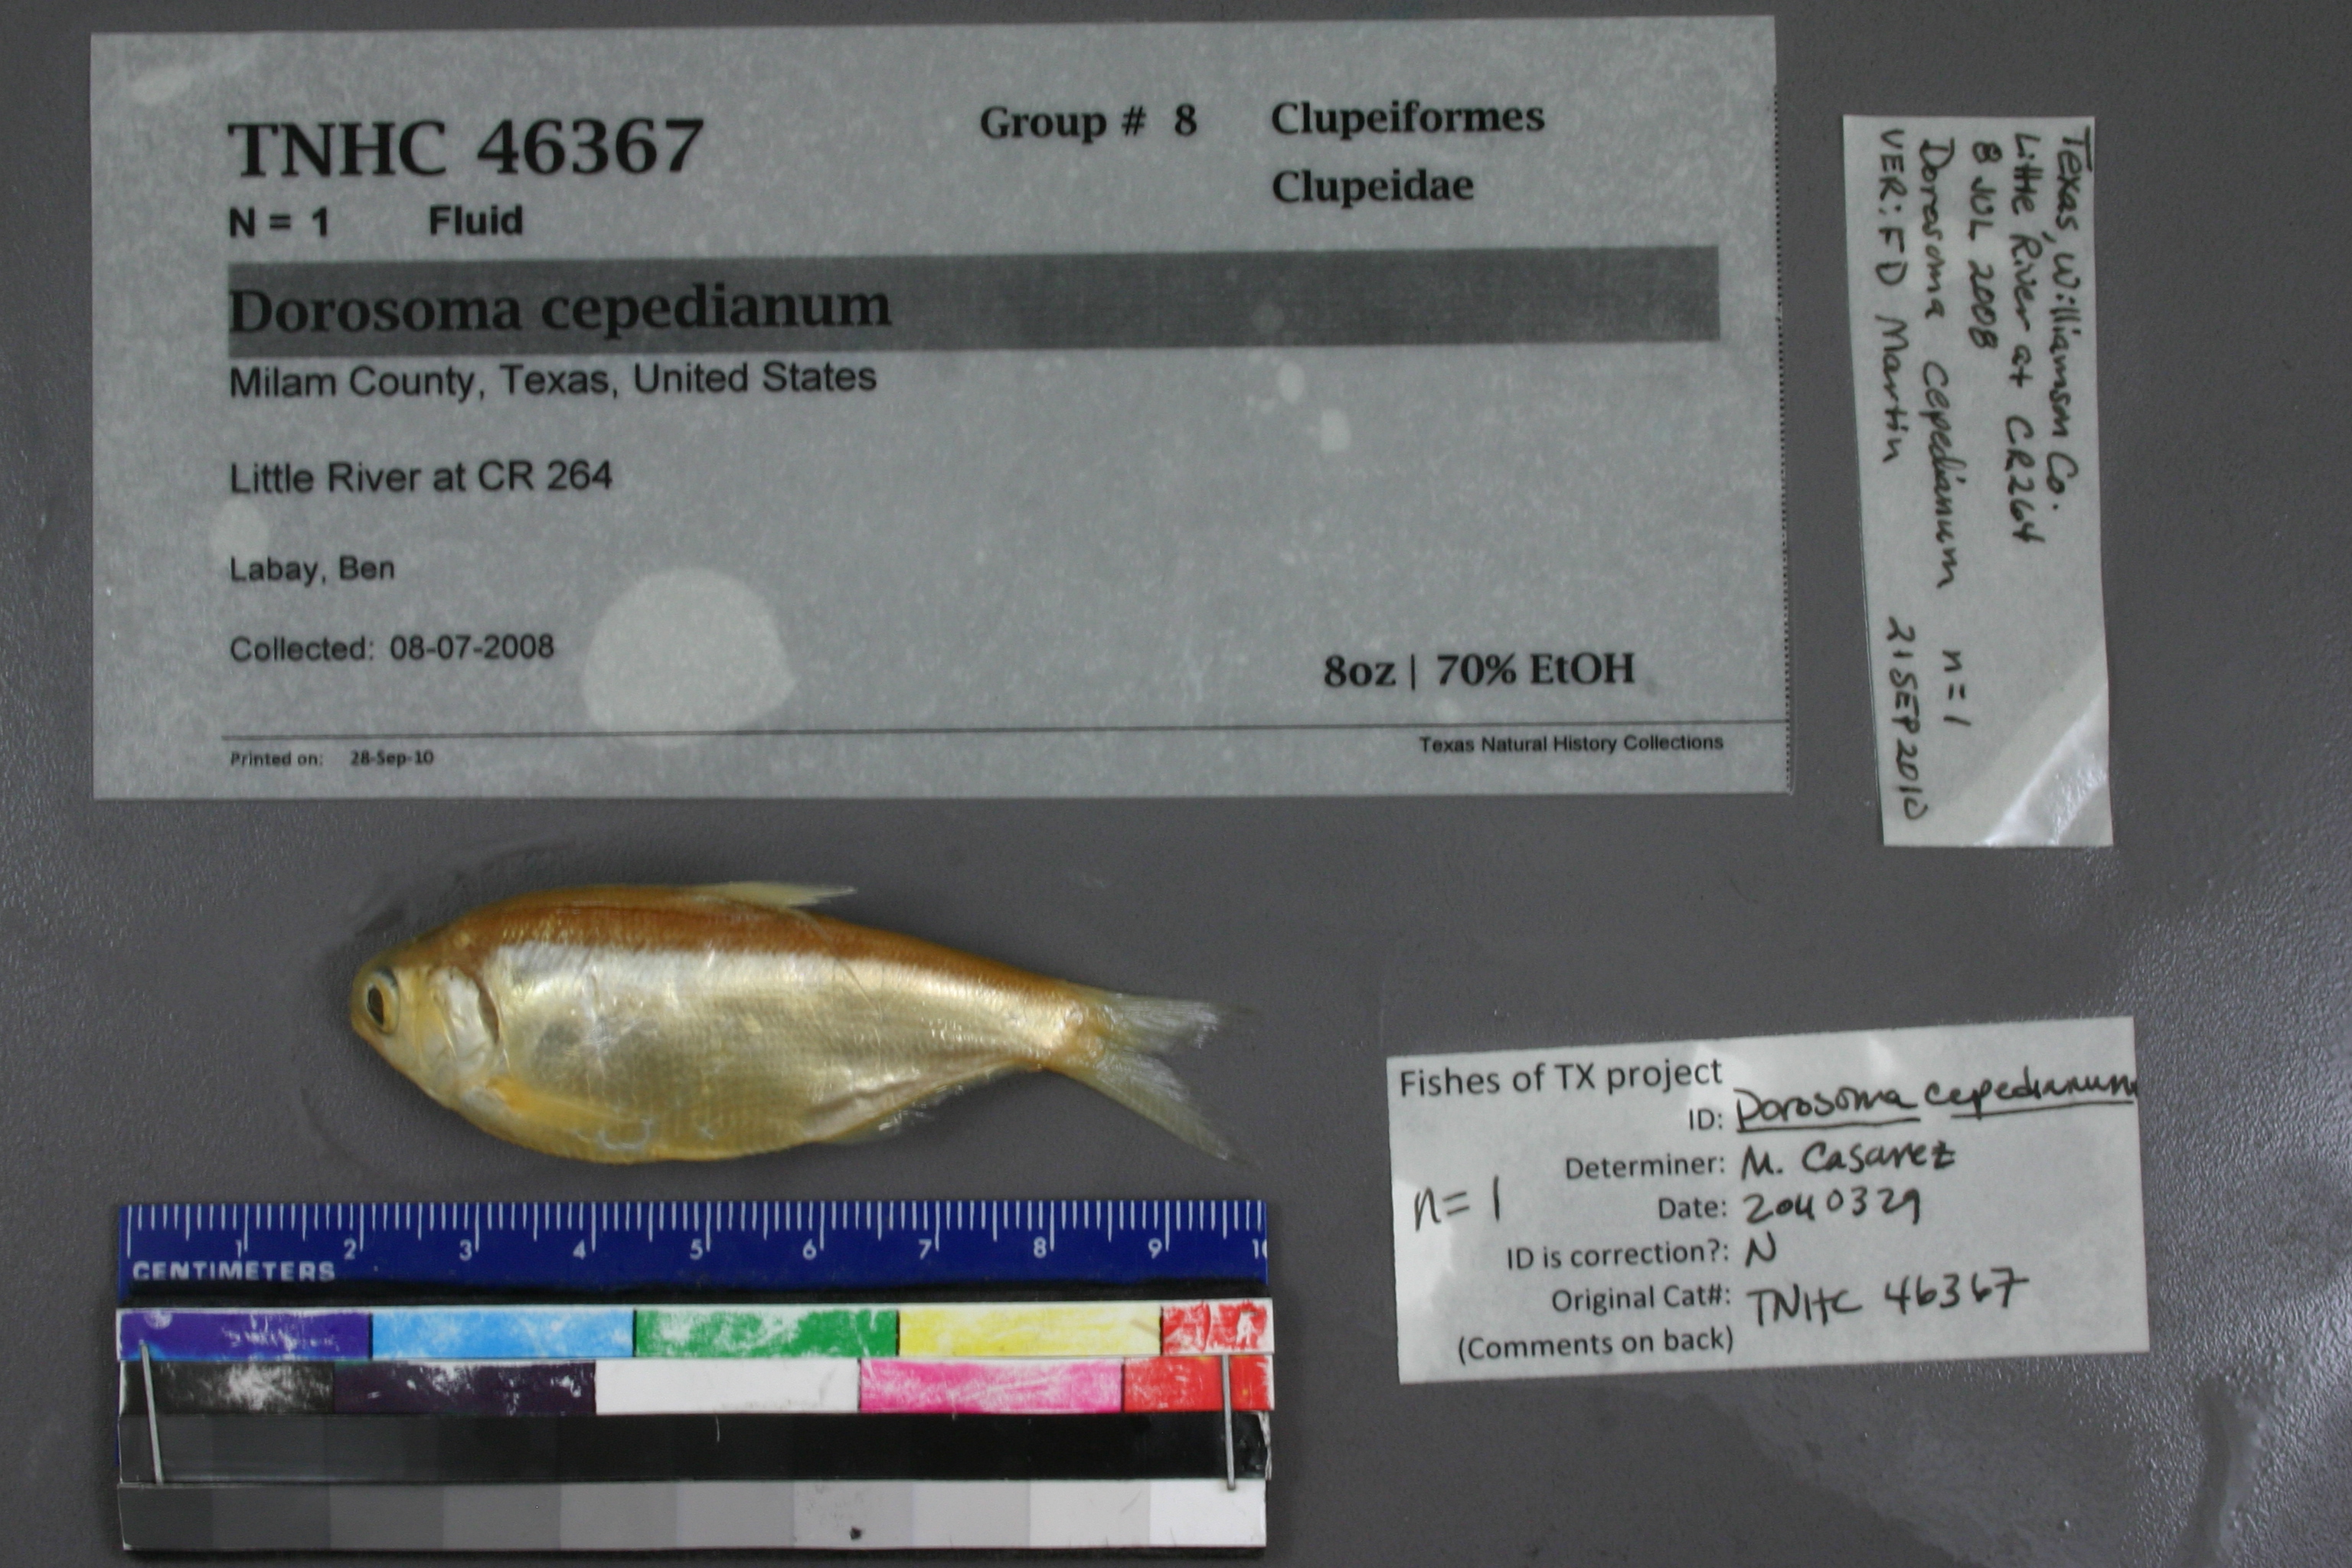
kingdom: Animalia
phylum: Chordata
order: Clupeiformes
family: Clupeidae
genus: Dorosoma
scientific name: Dorosoma cepedianum
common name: Gizzard shad
